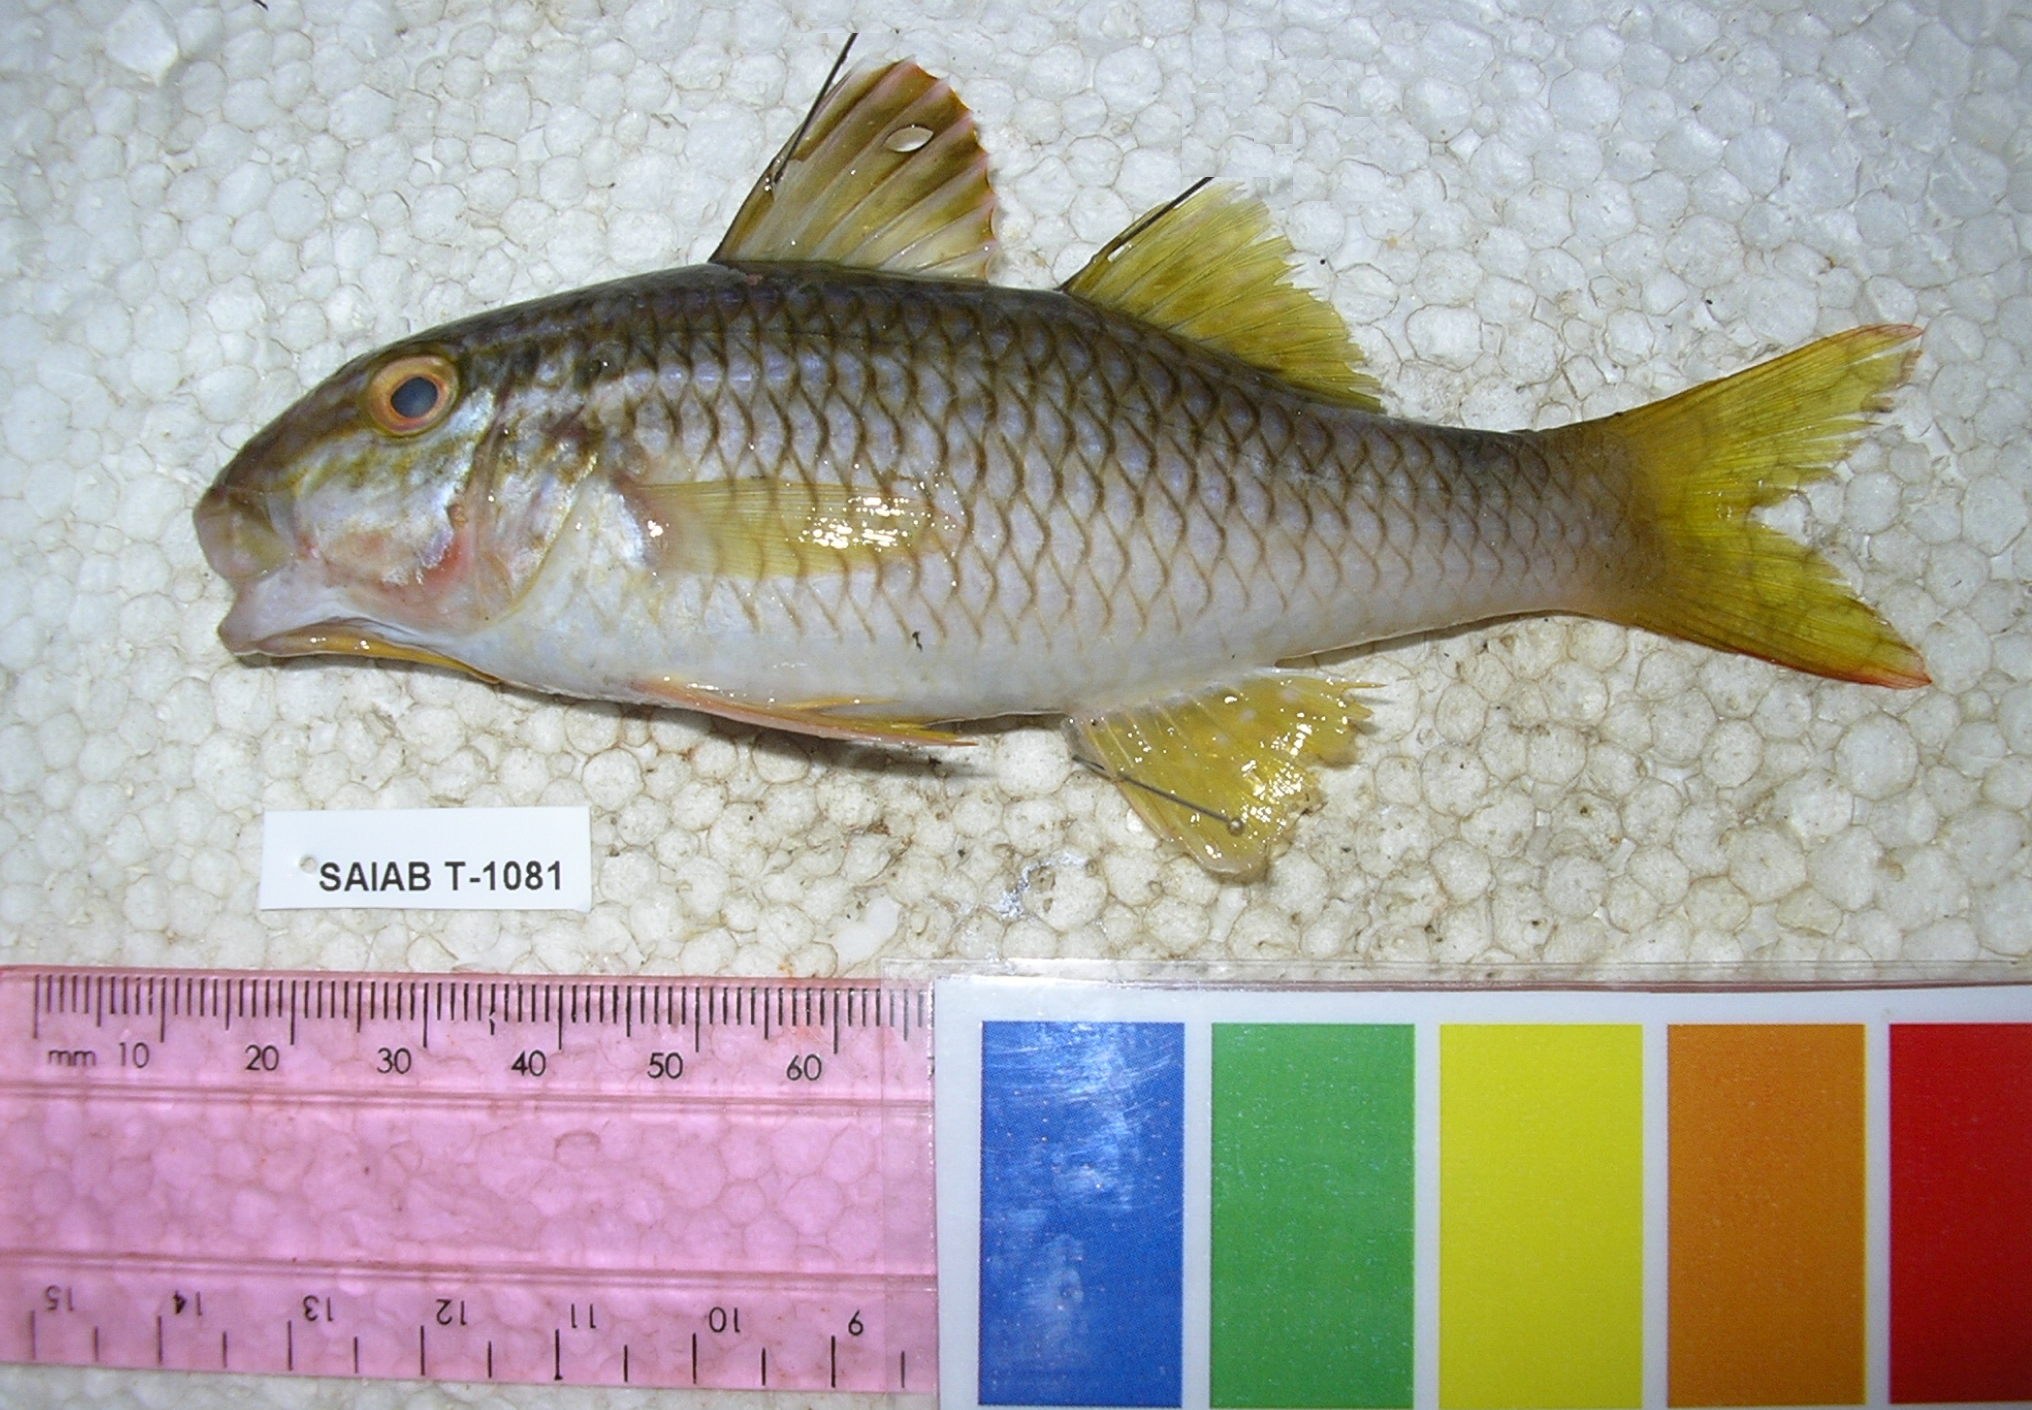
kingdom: Animalia
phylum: Chordata
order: Perciformes
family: Mullidae
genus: Parupeneus
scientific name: Parupeneus indicus
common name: Indian goatfish
